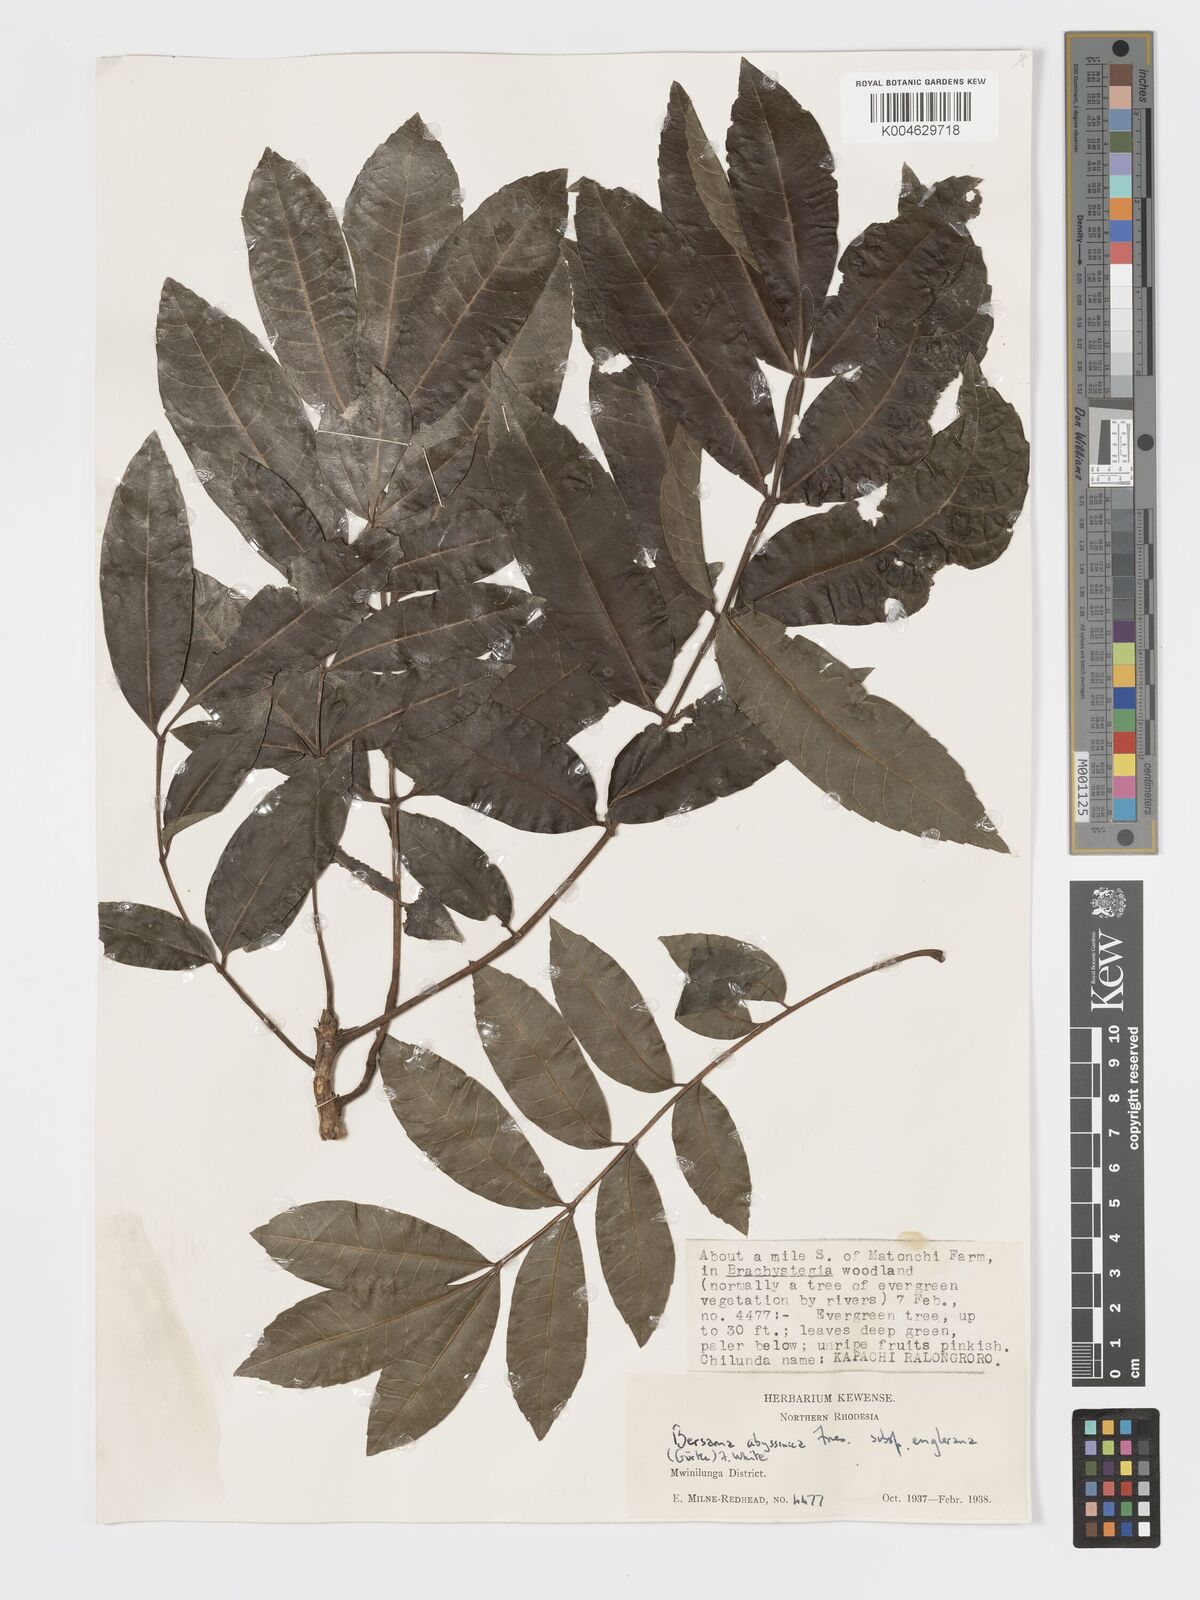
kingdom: Plantae
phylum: Tracheophyta
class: Magnoliopsida
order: Geraniales
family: Melianthaceae
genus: Bersama
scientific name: Bersama abyssinica
